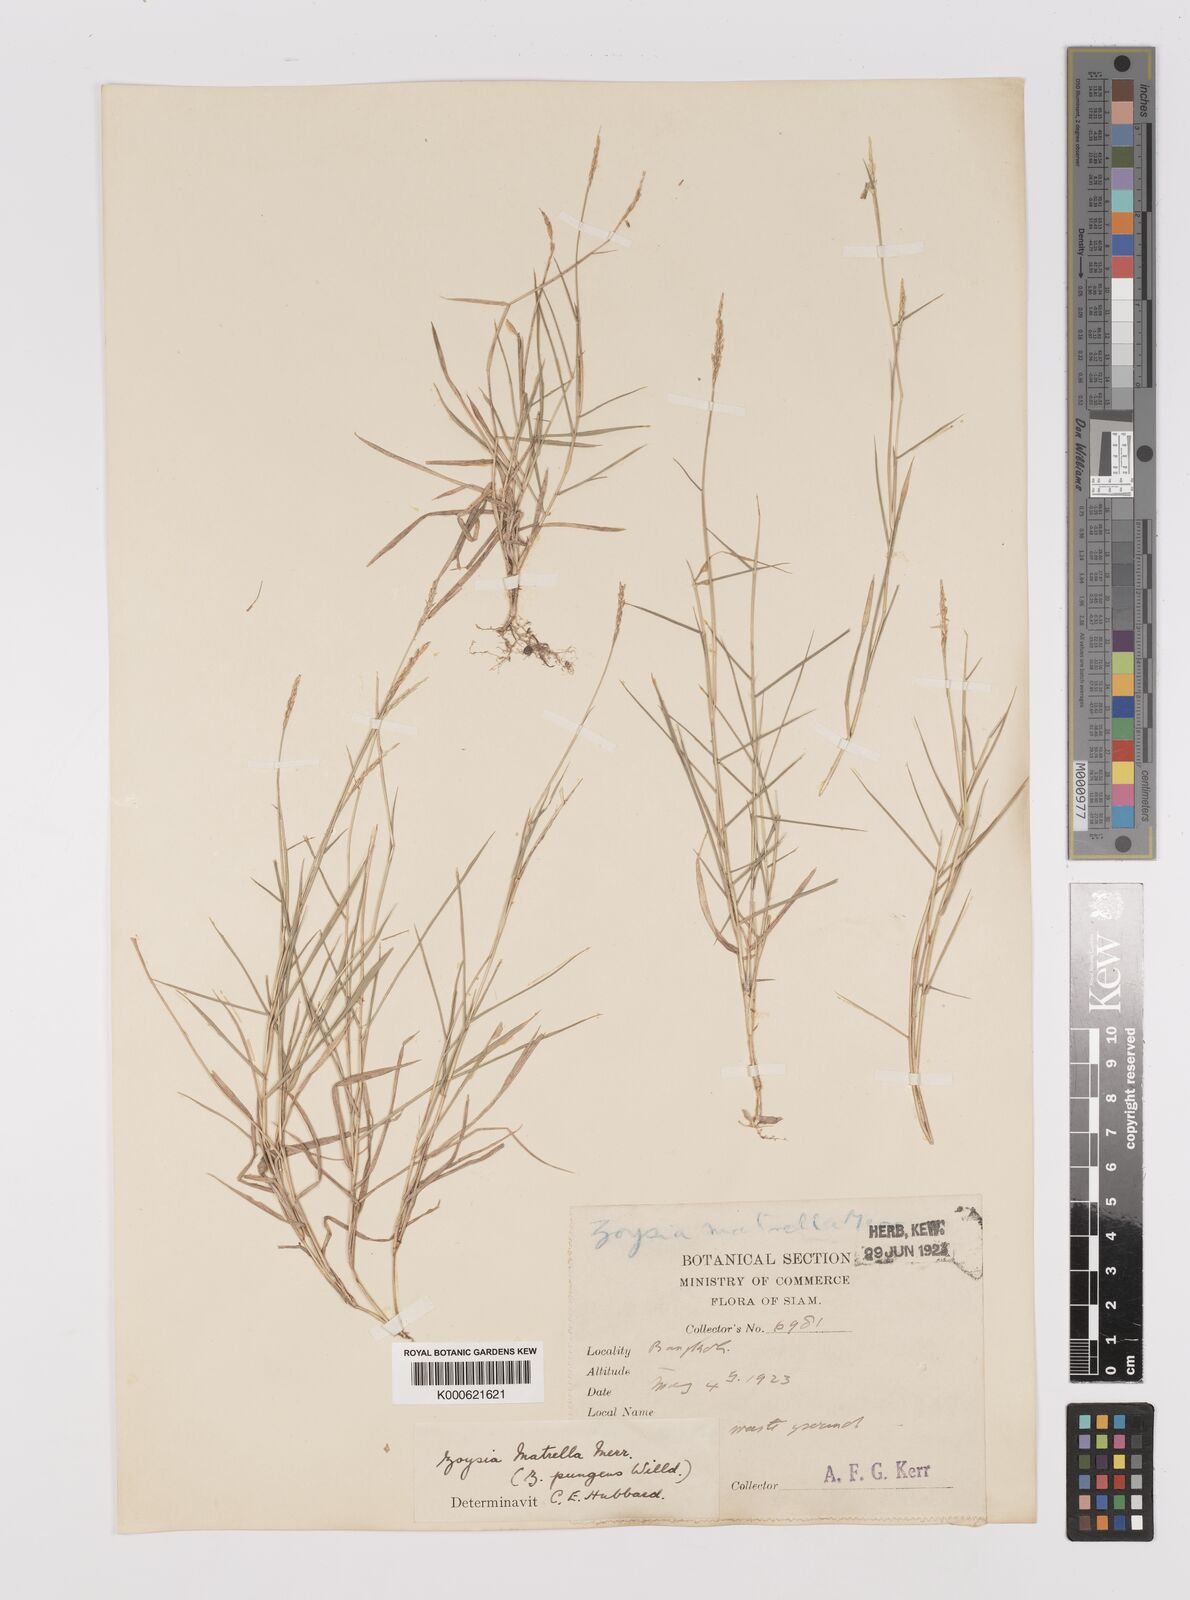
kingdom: Plantae
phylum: Tracheophyta
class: Liliopsida
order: Poales
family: Poaceae
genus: Zoysia
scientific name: Zoysia matrella
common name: Manila grass
